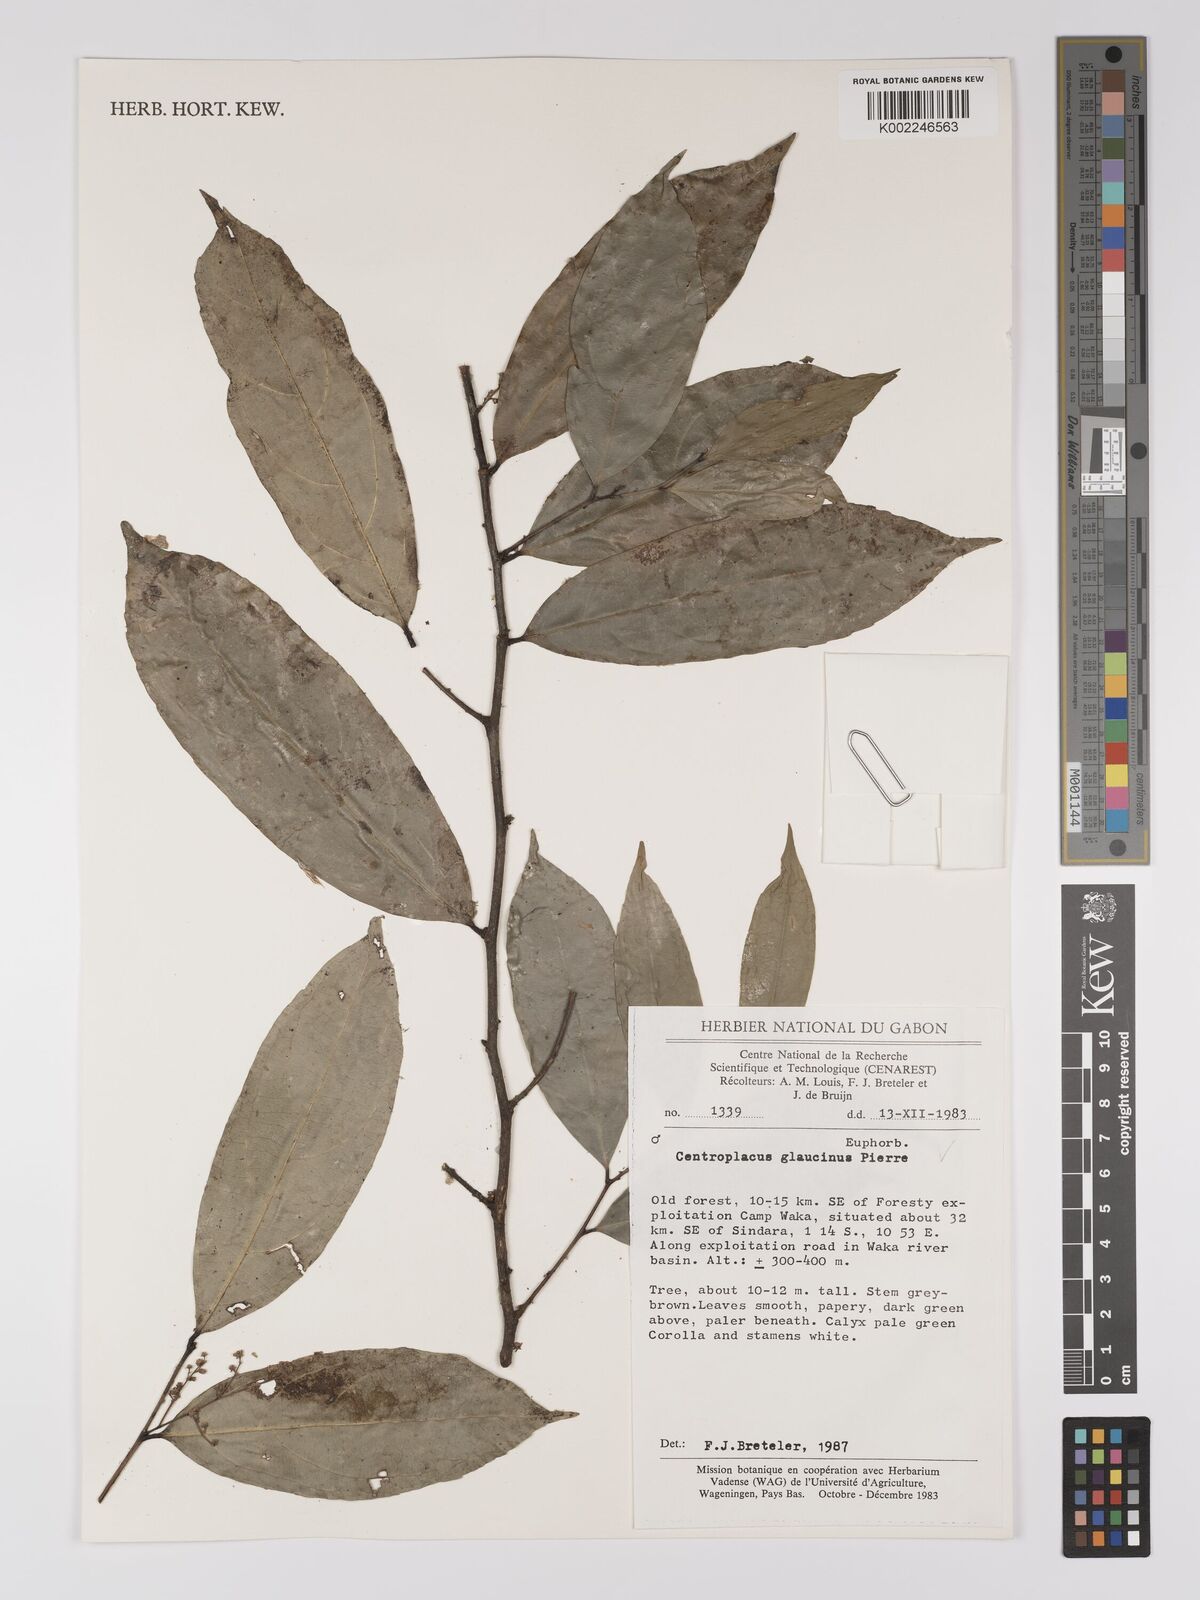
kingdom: Plantae
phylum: Tracheophyta
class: Magnoliopsida
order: Malpighiales
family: Centroplacaceae
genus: Centroplacus
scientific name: Centroplacus glaucinus
